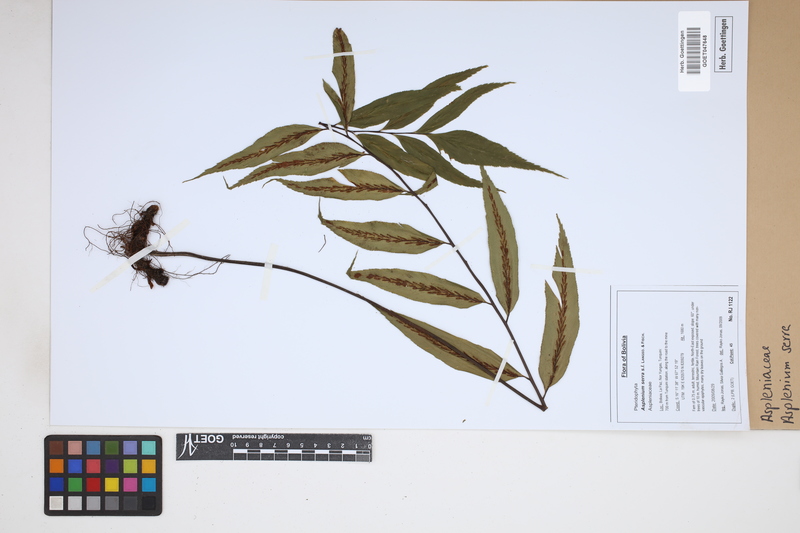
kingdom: Plantae
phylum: Tracheophyta
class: Polypodiopsida
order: Polypodiales
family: Aspleniaceae
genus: Asplenium
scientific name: Asplenium serra
